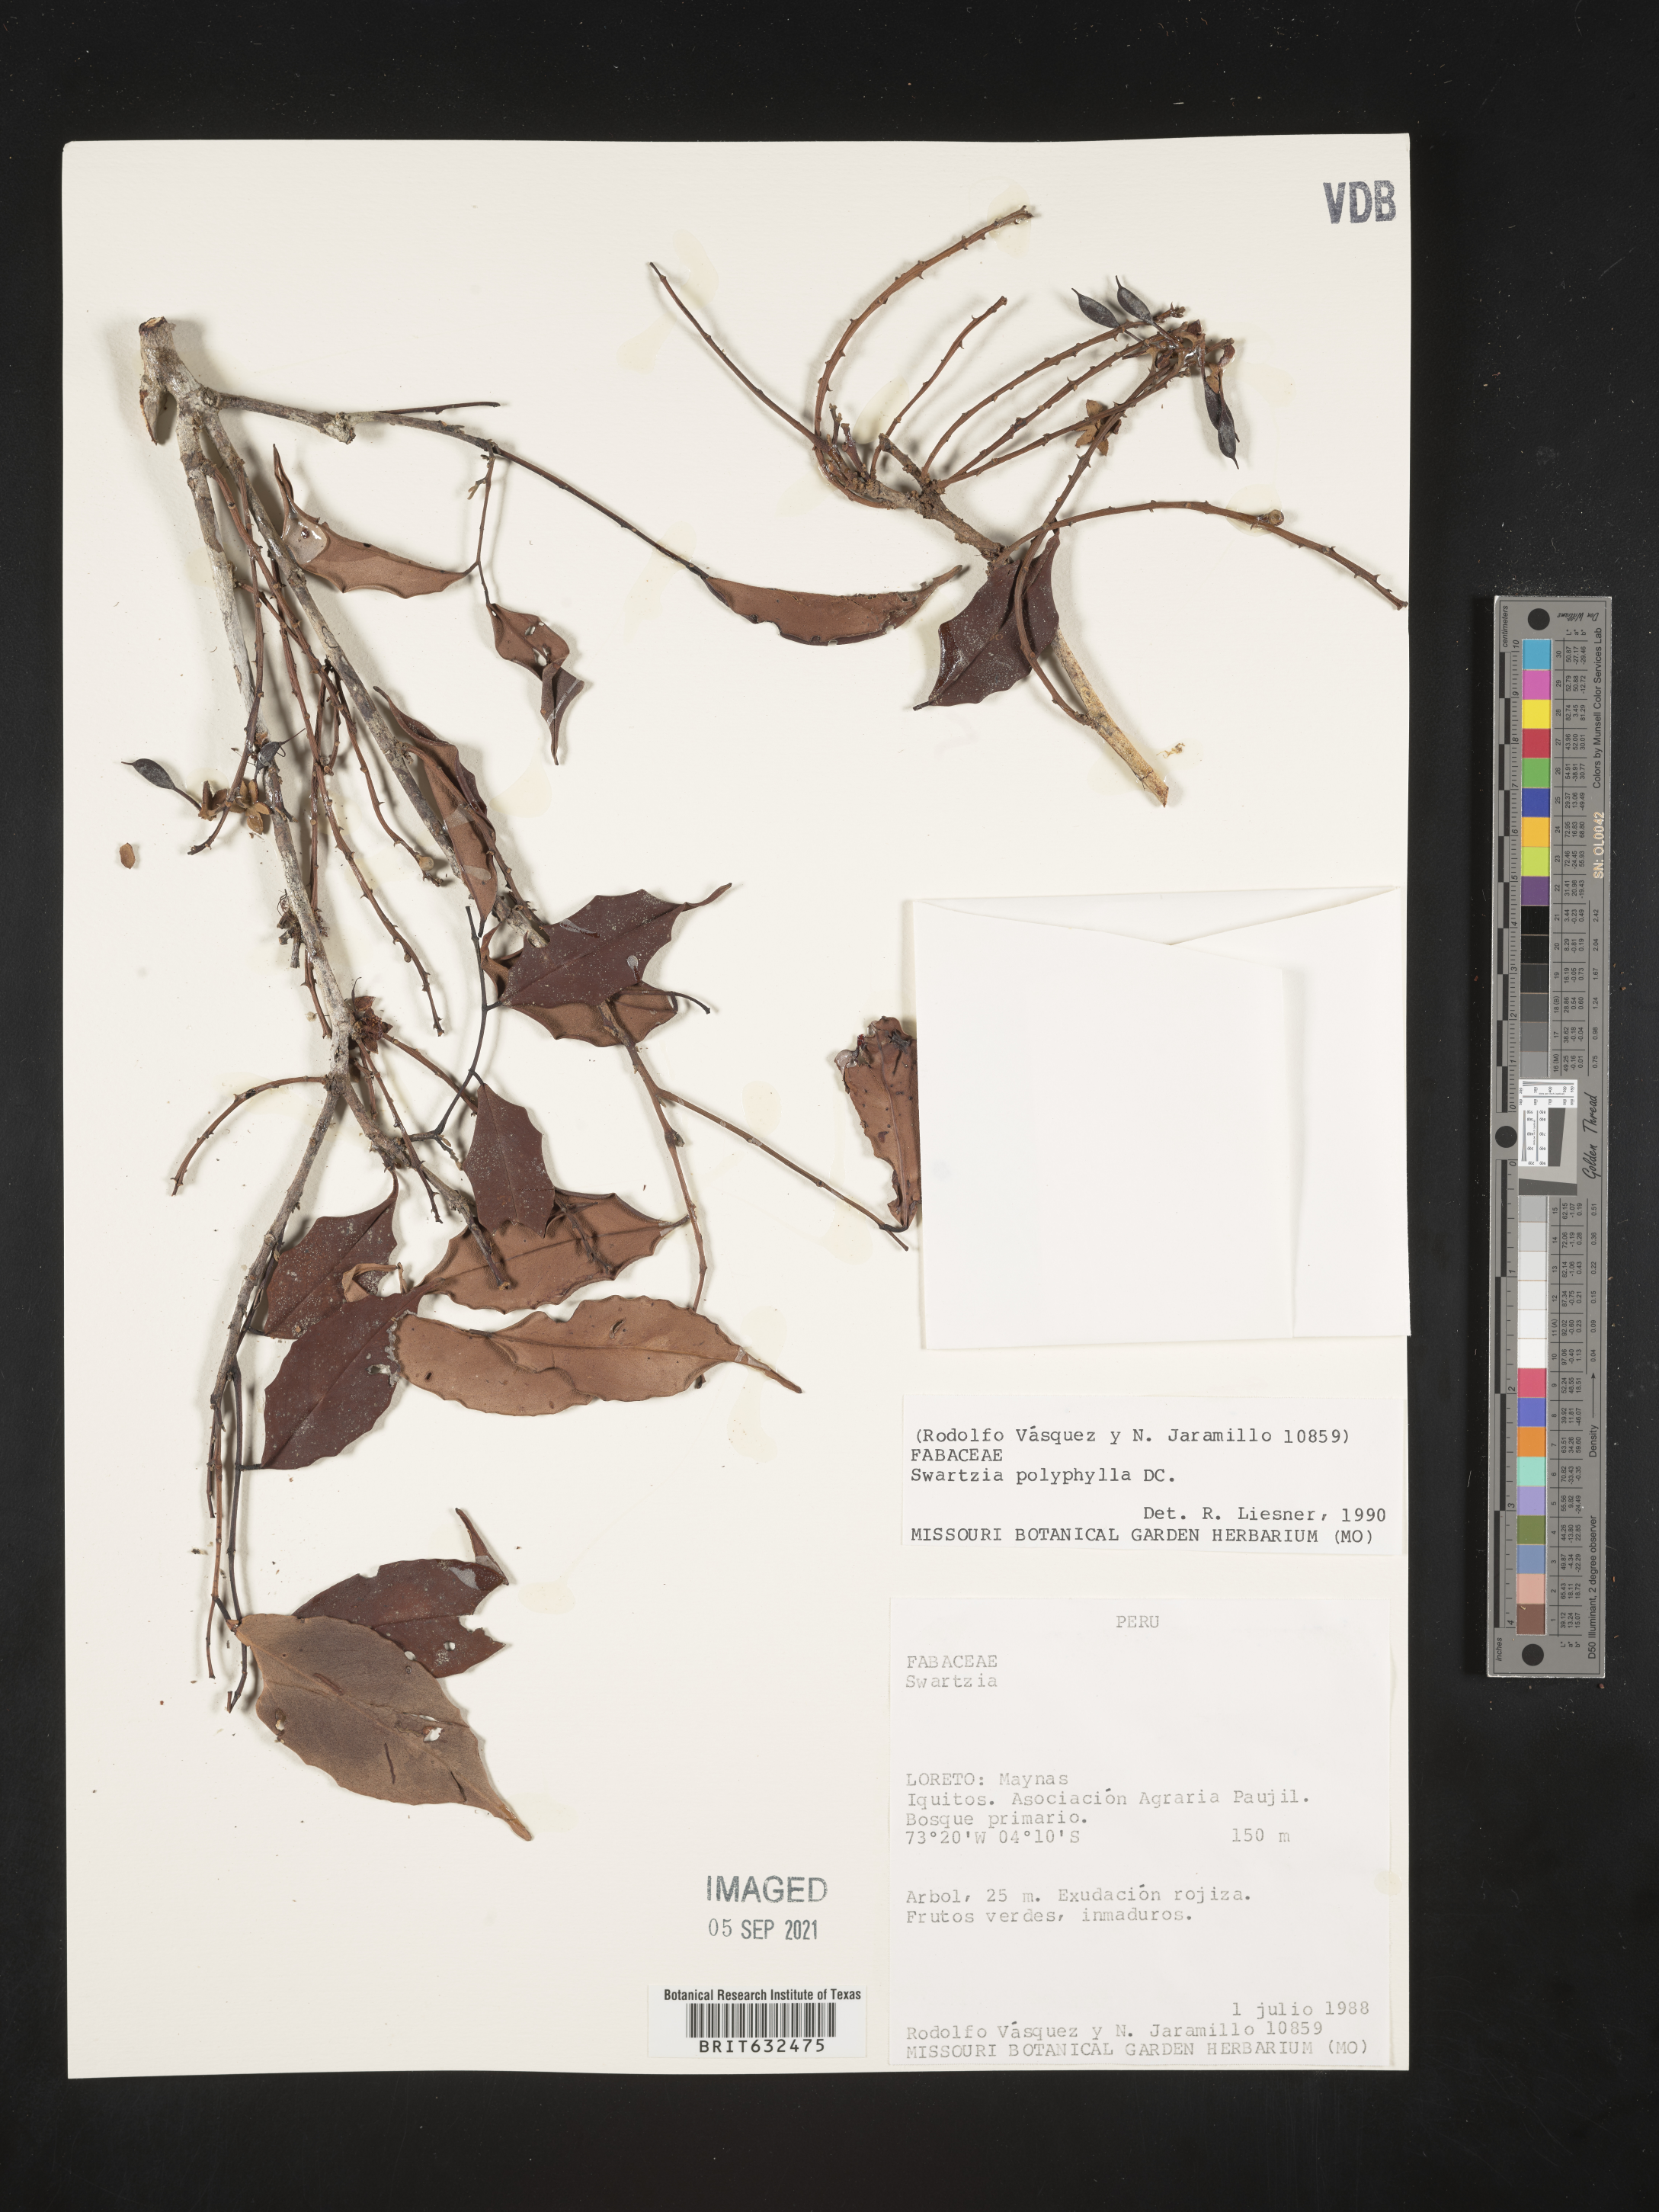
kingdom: Plantae
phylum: Tracheophyta
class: Magnoliopsida
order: Fabales
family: Fabaceae
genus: Swartzia
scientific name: Swartzia
